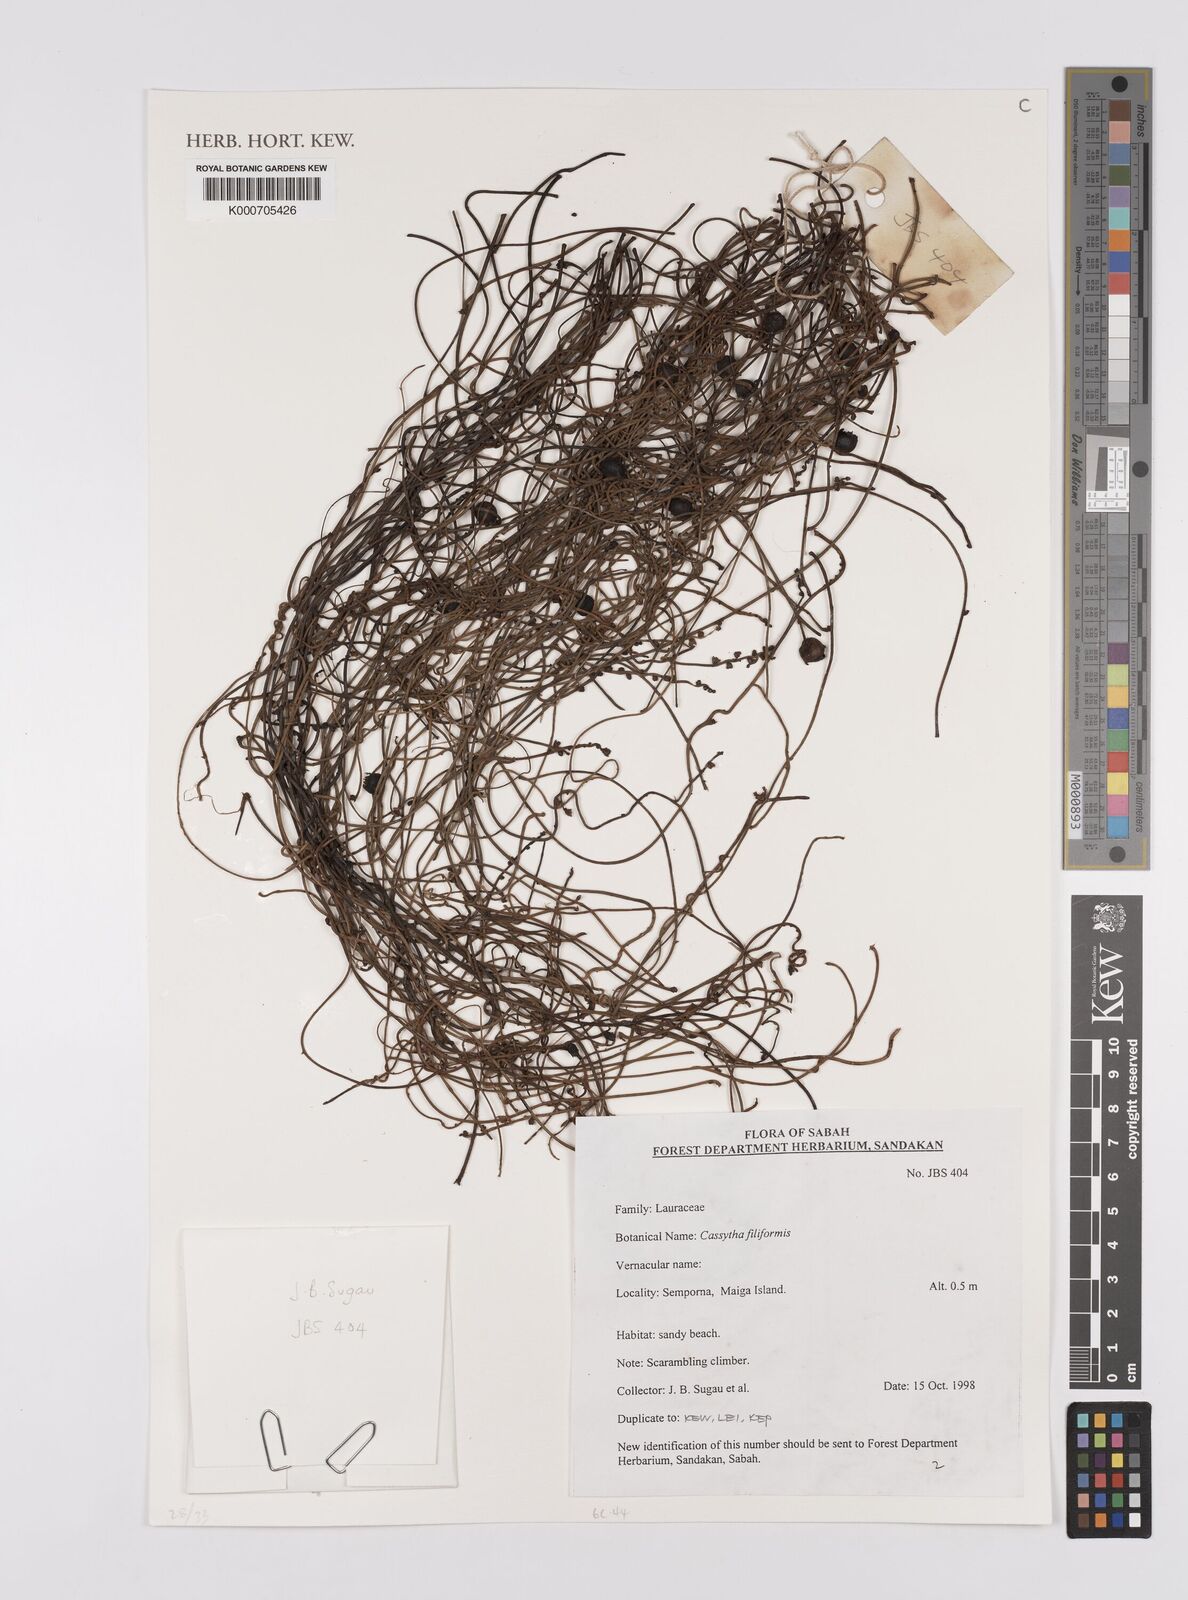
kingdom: Plantae
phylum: Tracheophyta
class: Magnoliopsida
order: Laurales
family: Lauraceae
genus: Cassytha
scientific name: Cassytha filiformis
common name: Dodder-laurel
